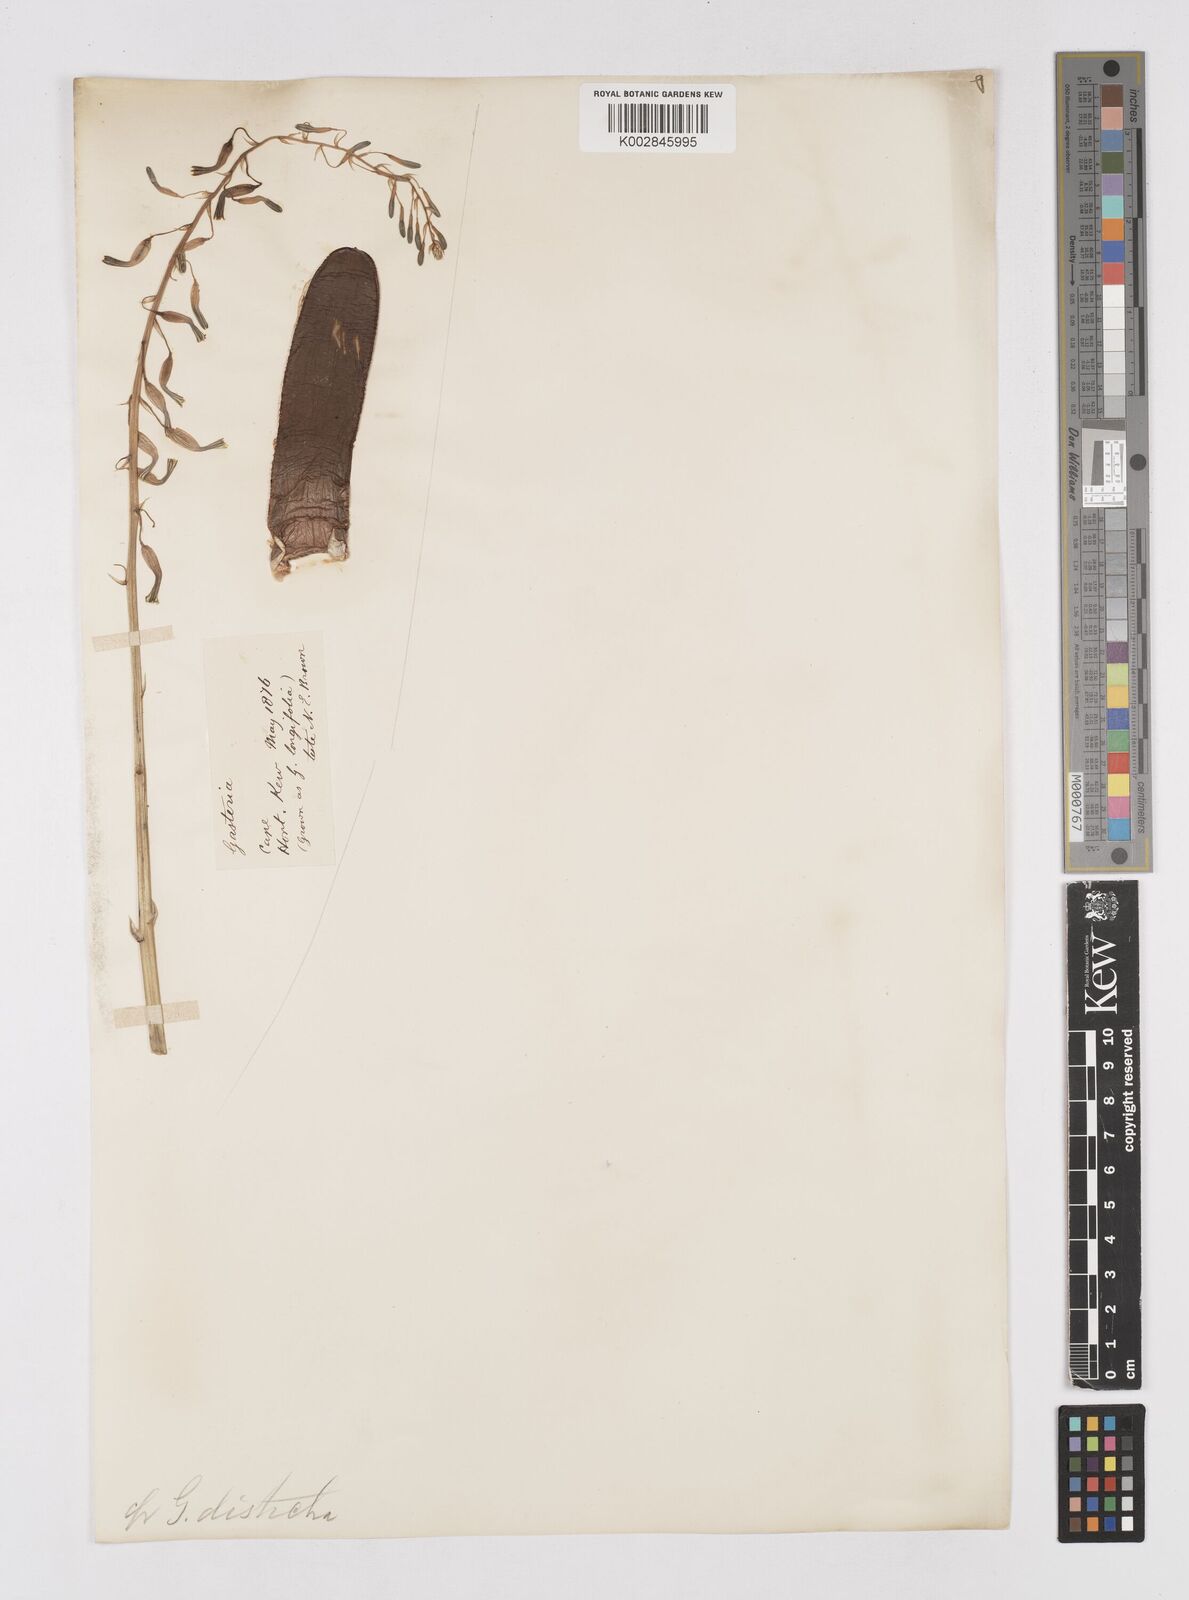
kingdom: Plantae
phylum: Tracheophyta
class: Liliopsida
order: Asparagales
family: Asphodelaceae
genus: Gasteria
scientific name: Gasteria lingua
